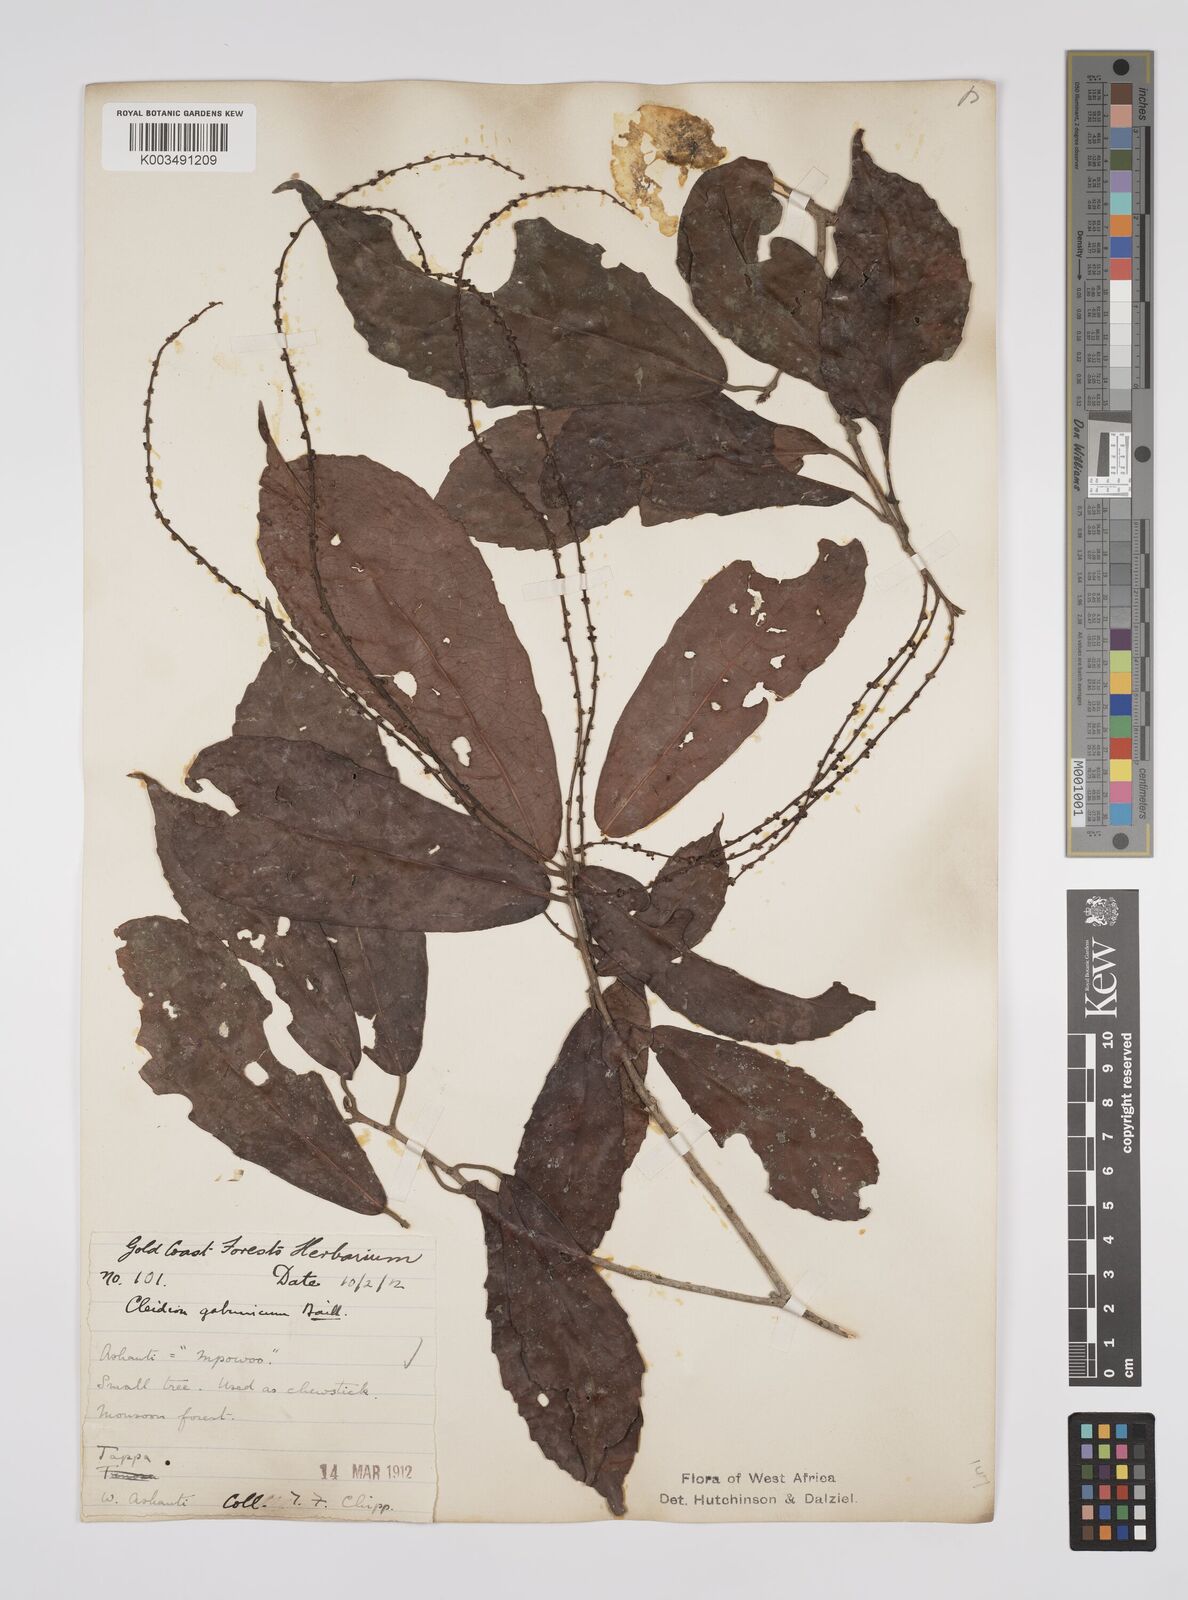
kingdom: Plantae
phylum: Tracheophyta
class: Magnoliopsida
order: Malpighiales
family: Euphorbiaceae
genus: Cleidion
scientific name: Cleidion gabonicum
